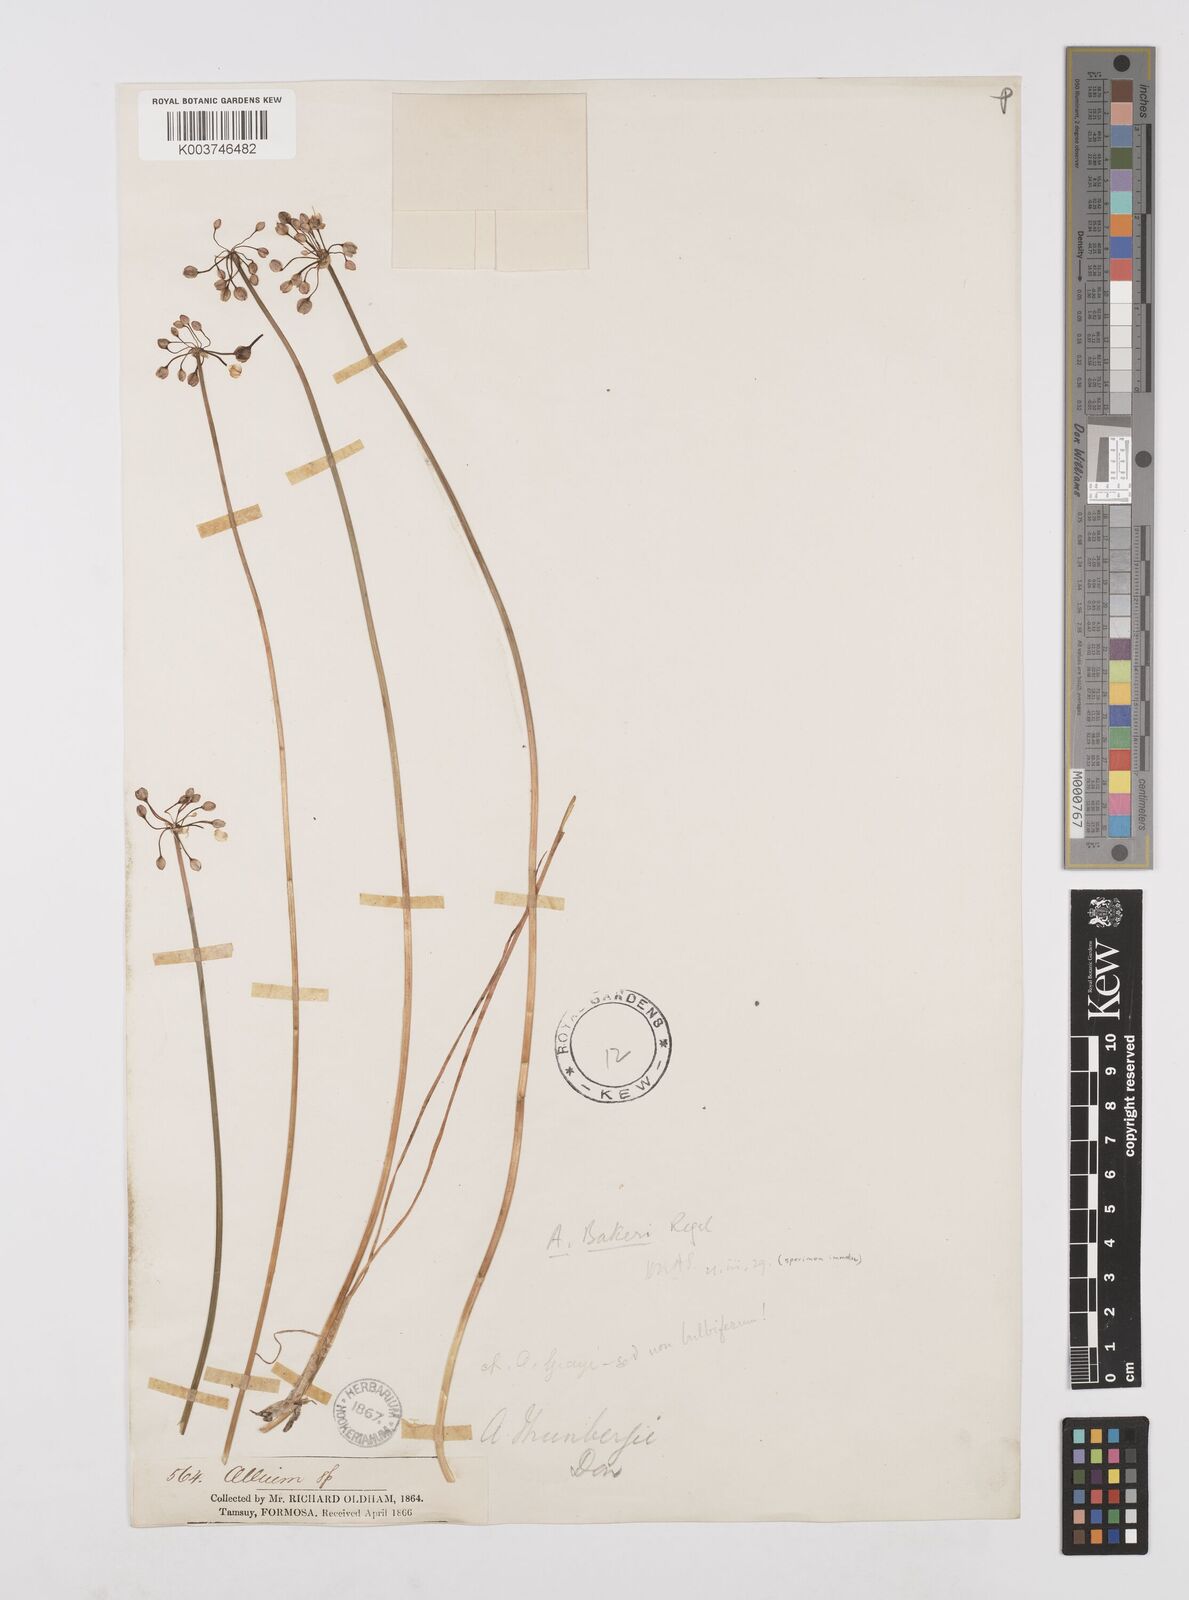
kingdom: Plantae
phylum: Tracheophyta
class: Liliopsida
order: Asparagales
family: Amaryllidaceae
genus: Allium
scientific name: Allium macrostemon
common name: Chinese garlic
